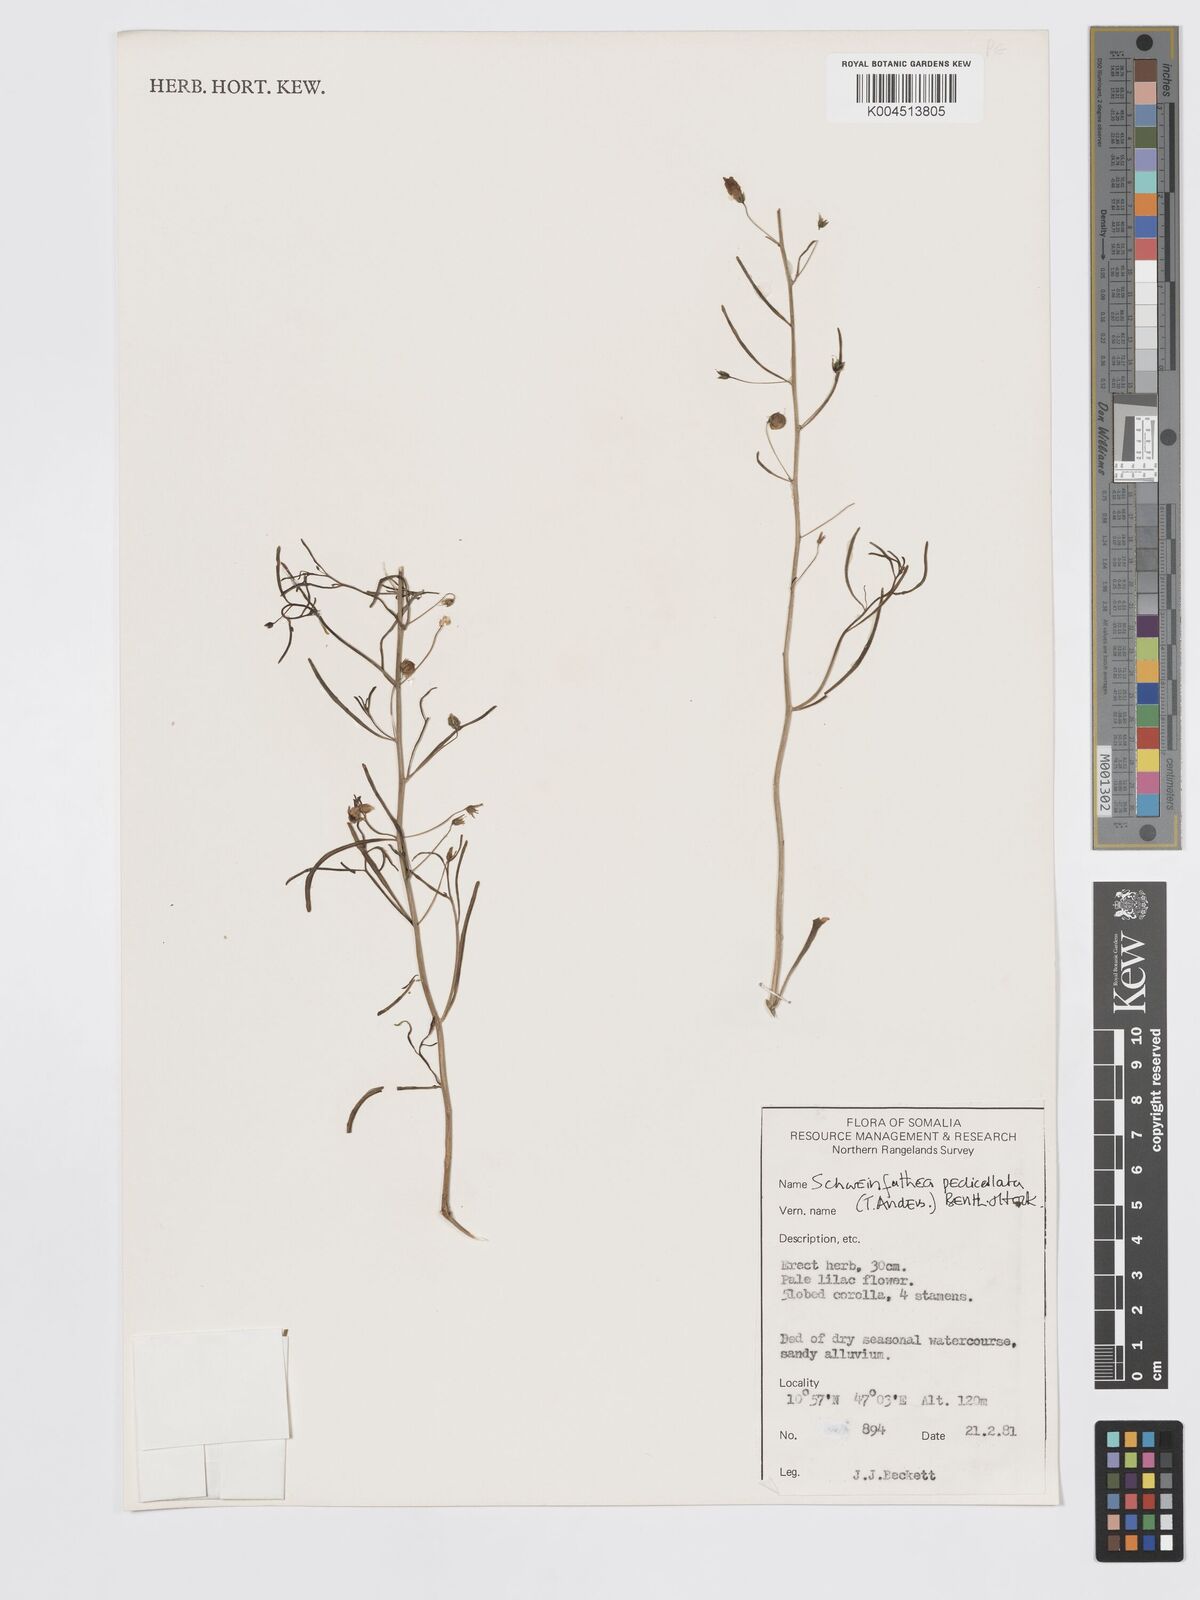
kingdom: Plantae
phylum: Tracheophyta
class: Magnoliopsida
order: Lamiales
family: Plantaginaceae
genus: Schweinfurthia
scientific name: Schweinfurthia pterosperma
